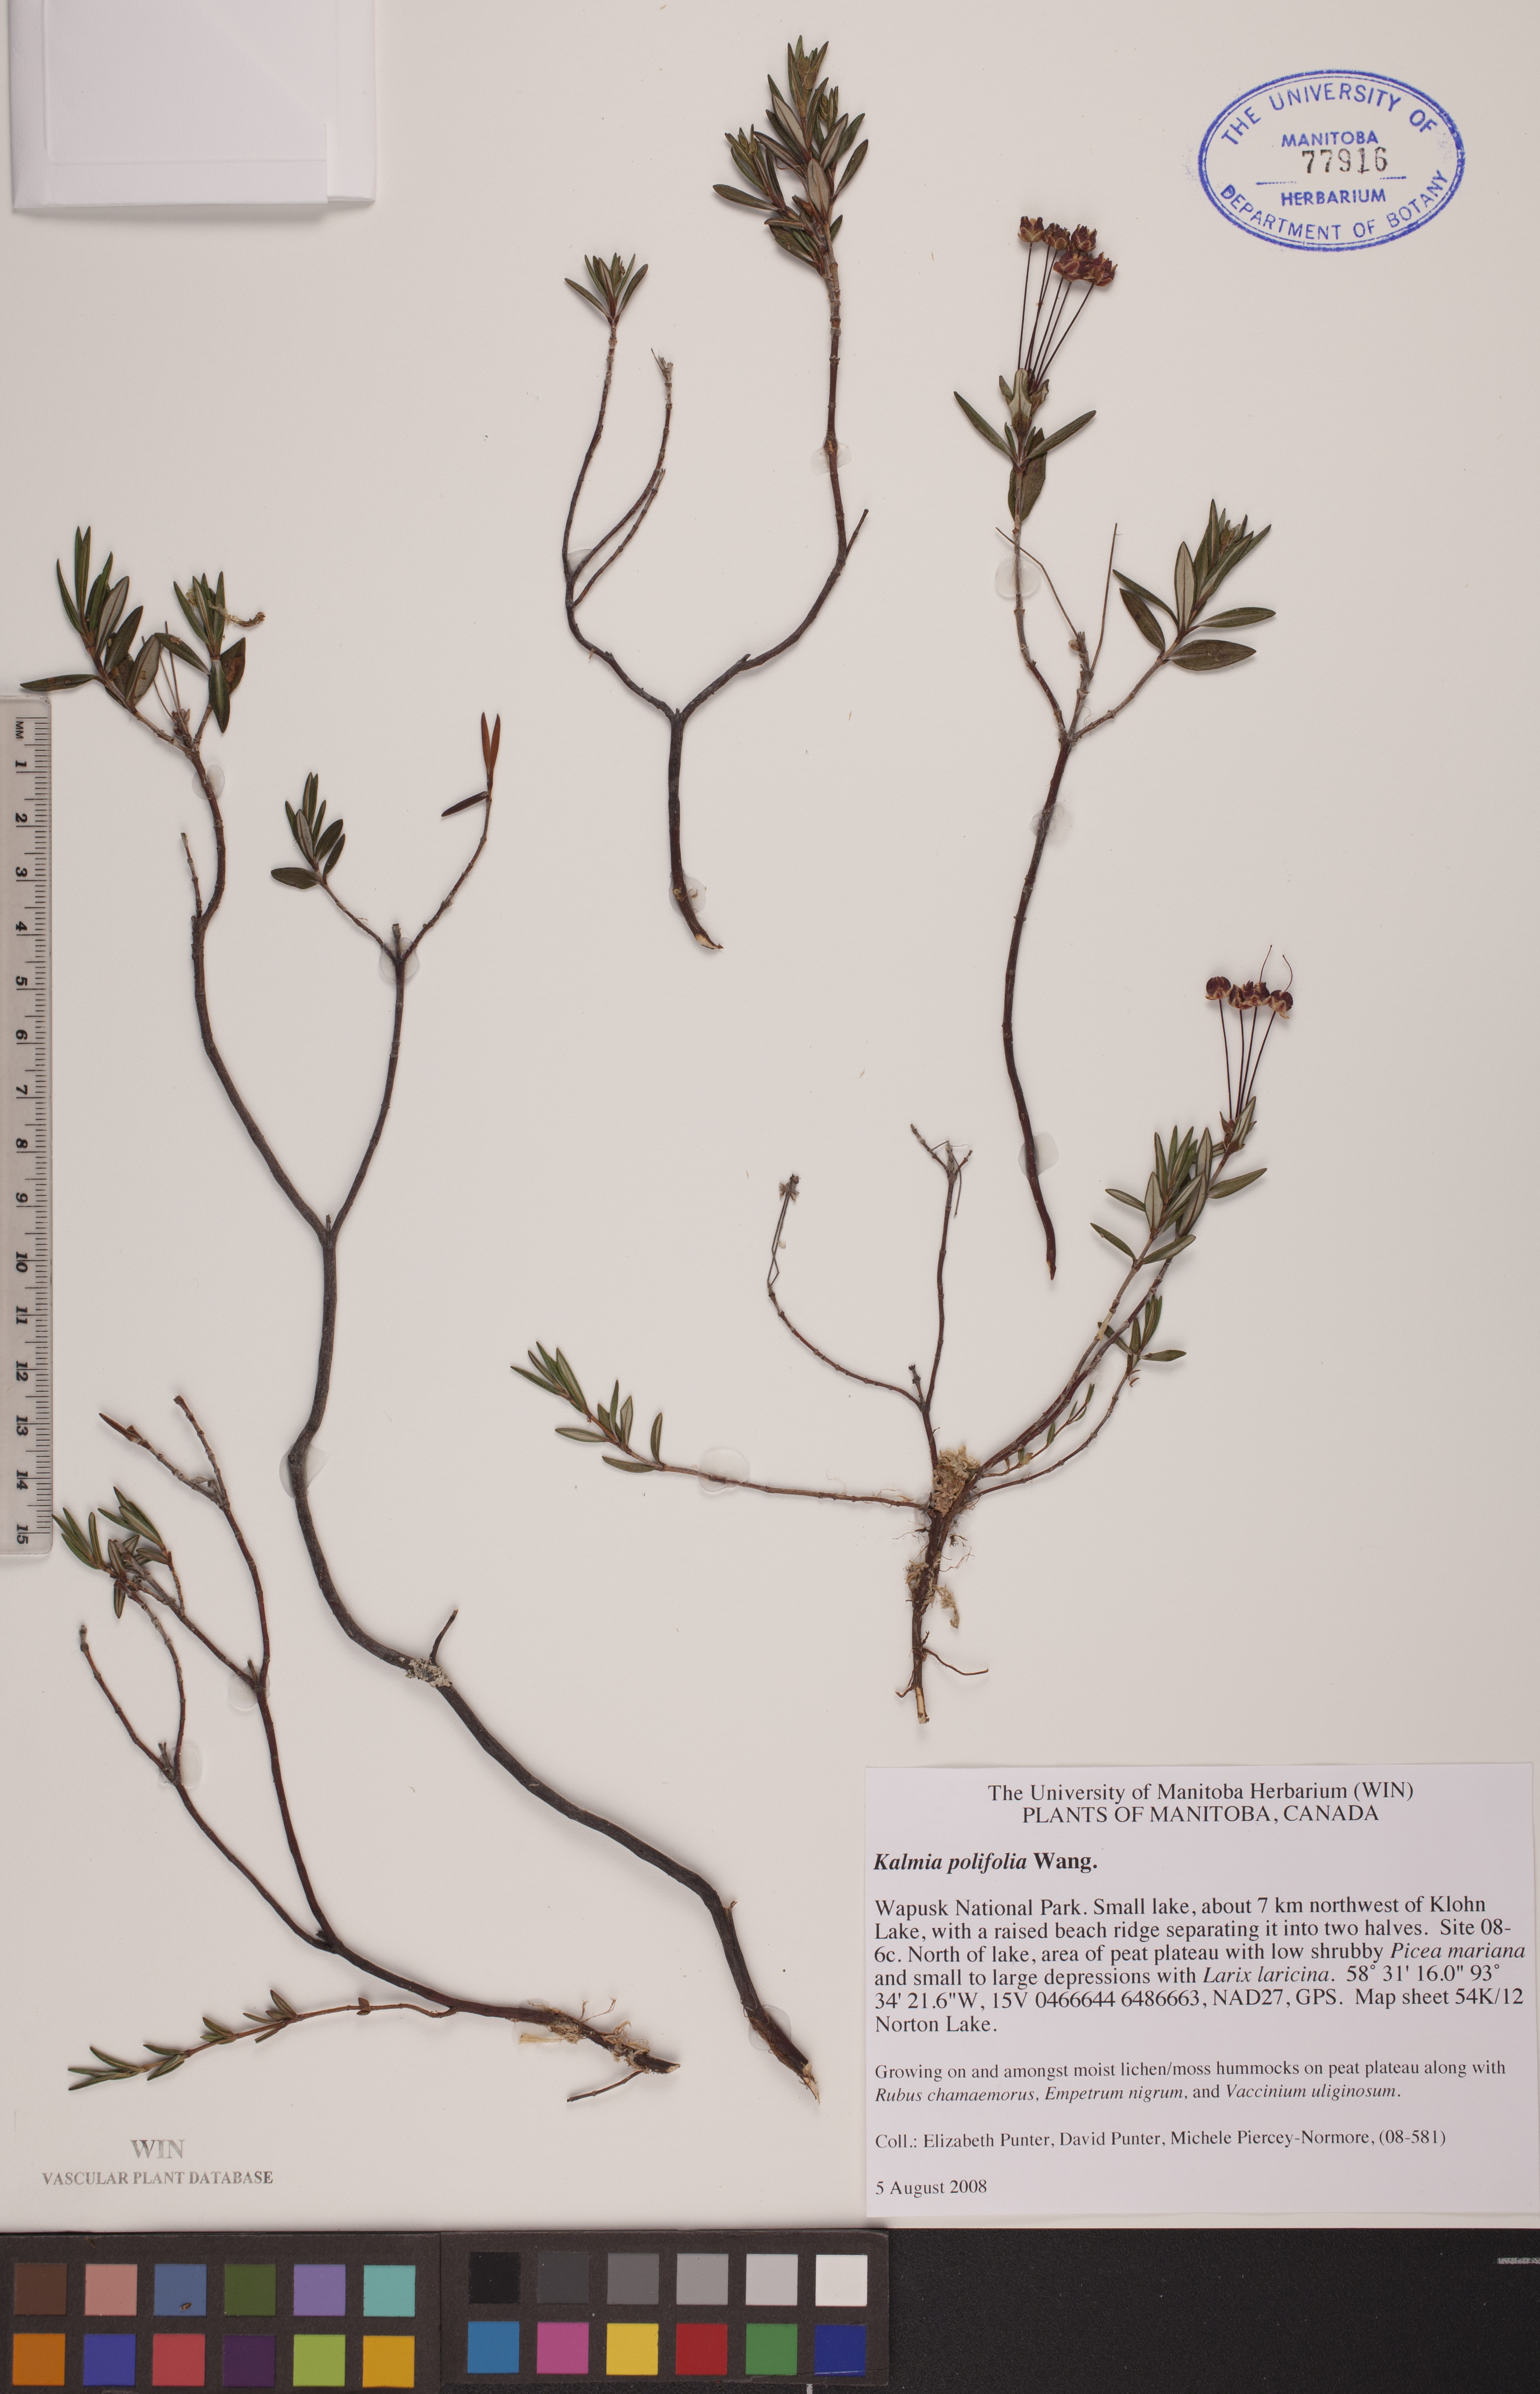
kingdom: Plantae
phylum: Tracheophyta
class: Magnoliopsida
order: Ericales
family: Ericaceae
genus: Kalmia
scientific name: Kalmia polifolia
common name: Bog-laurel
